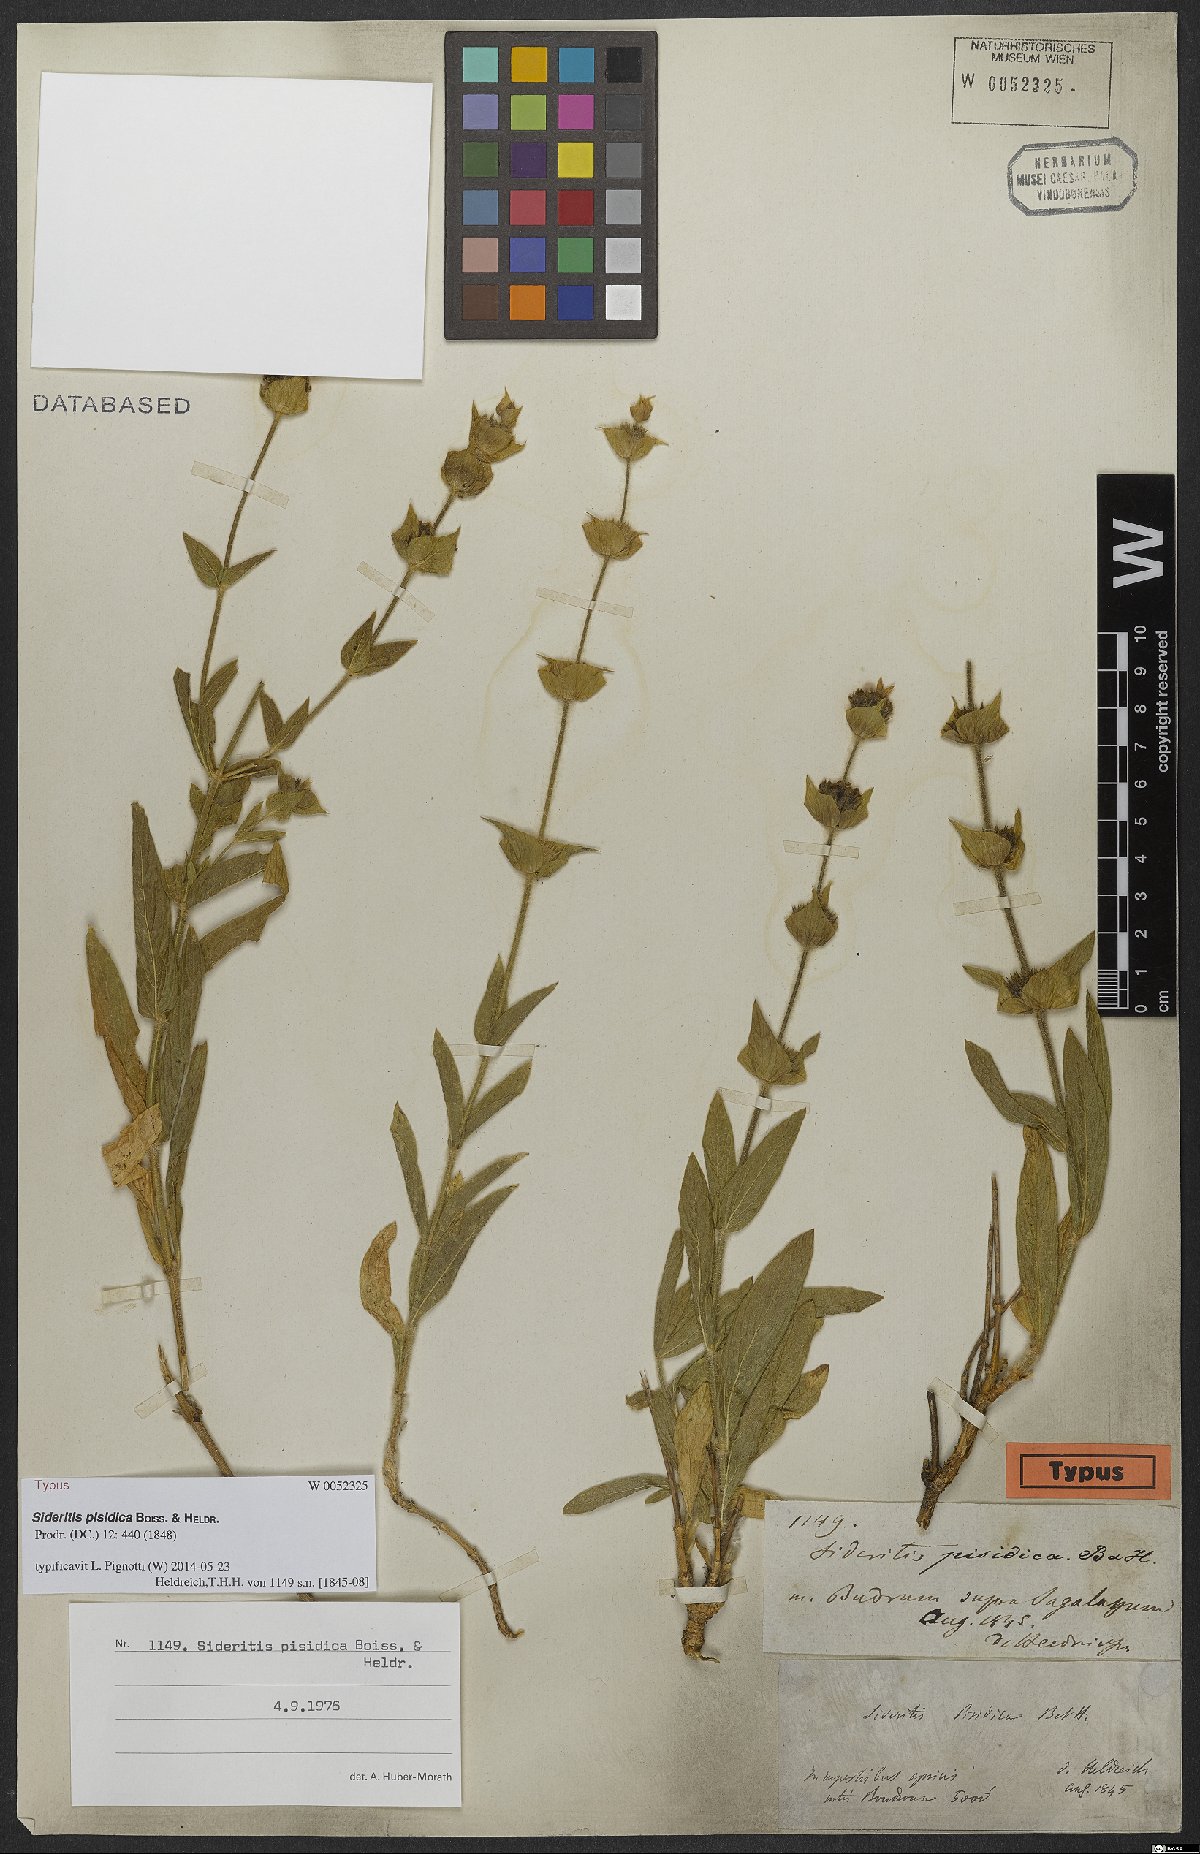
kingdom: Plantae
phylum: Tracheophyta
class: Magnoliopsida
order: Lamiales
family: Lamiaceae
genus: Sideritis
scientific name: Sideritis pisidica
